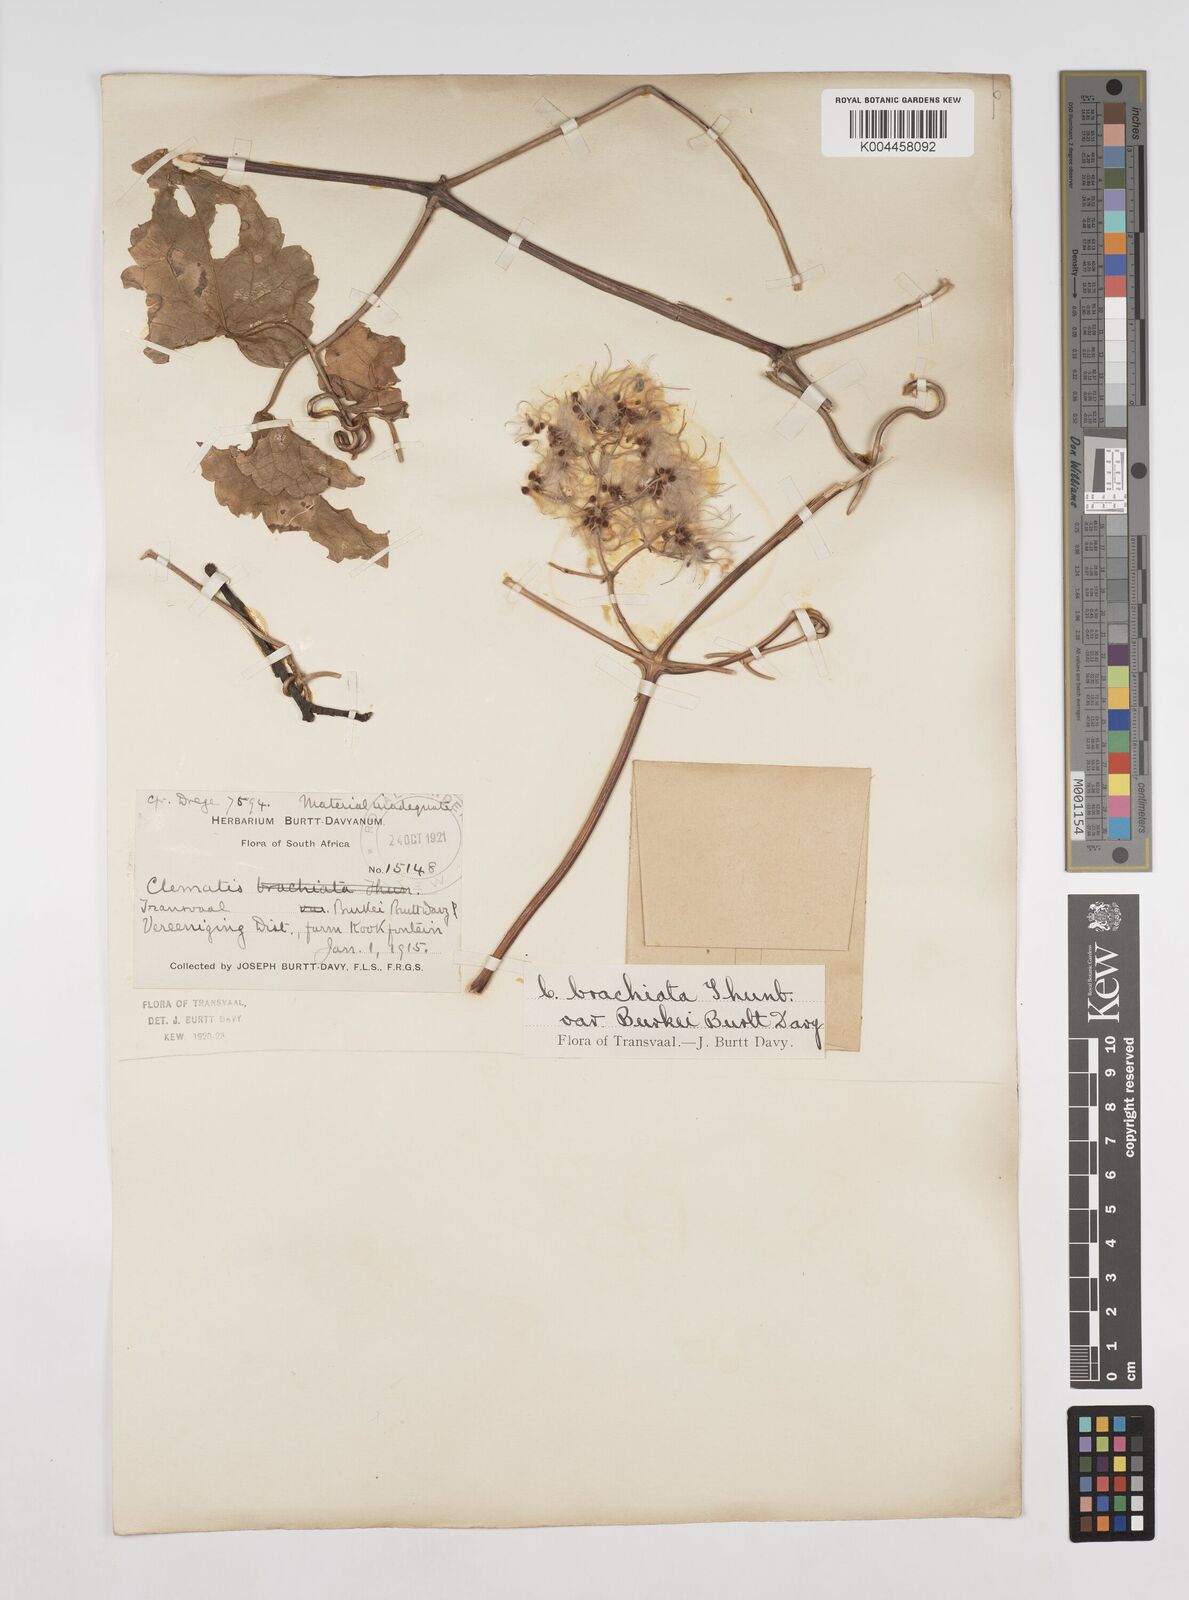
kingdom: Plantae
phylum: Tracheophyta
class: Magnoliopsida
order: Ranunculales
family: Ranunculaceae
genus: Clematis
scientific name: Clematis brachiata
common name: Traveler's-joy
